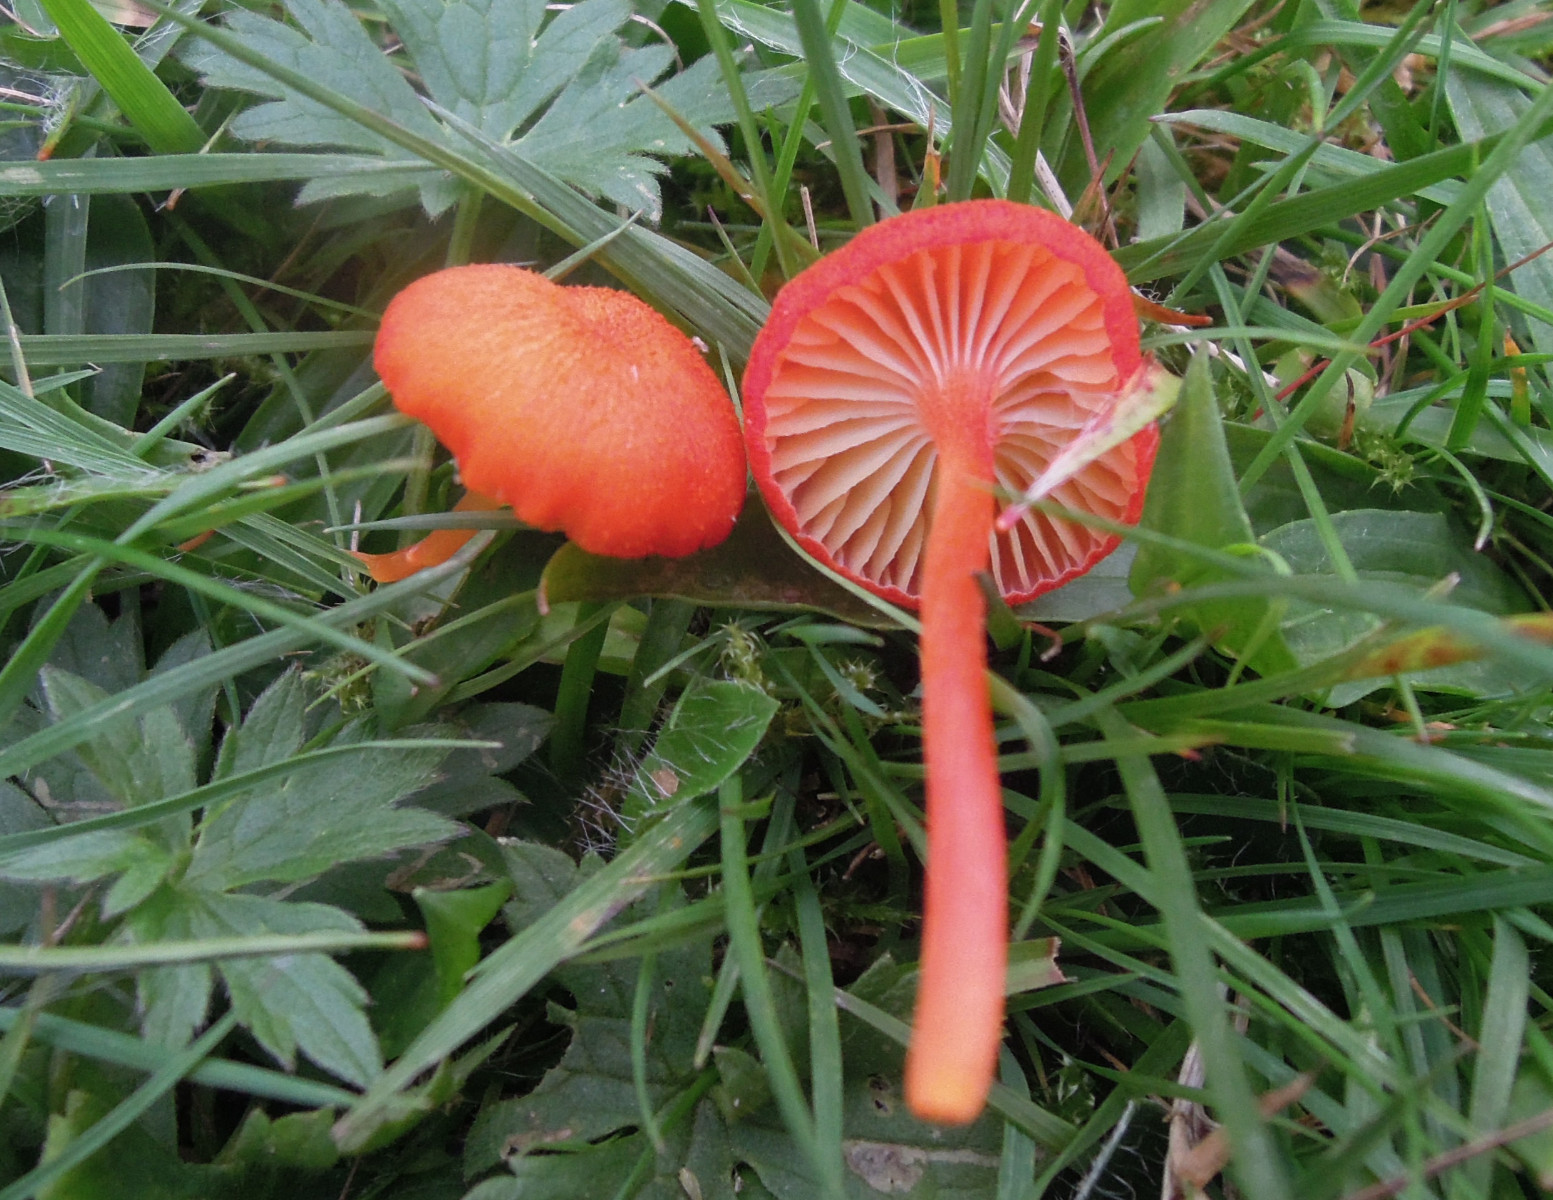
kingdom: Fungi
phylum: Basidiomycota
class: Agaricomycetes
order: Agaricales
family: Hygrophoraceae
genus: Hygrocybe
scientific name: Hygrocybe cantharellus
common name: kantarel-vokshat
